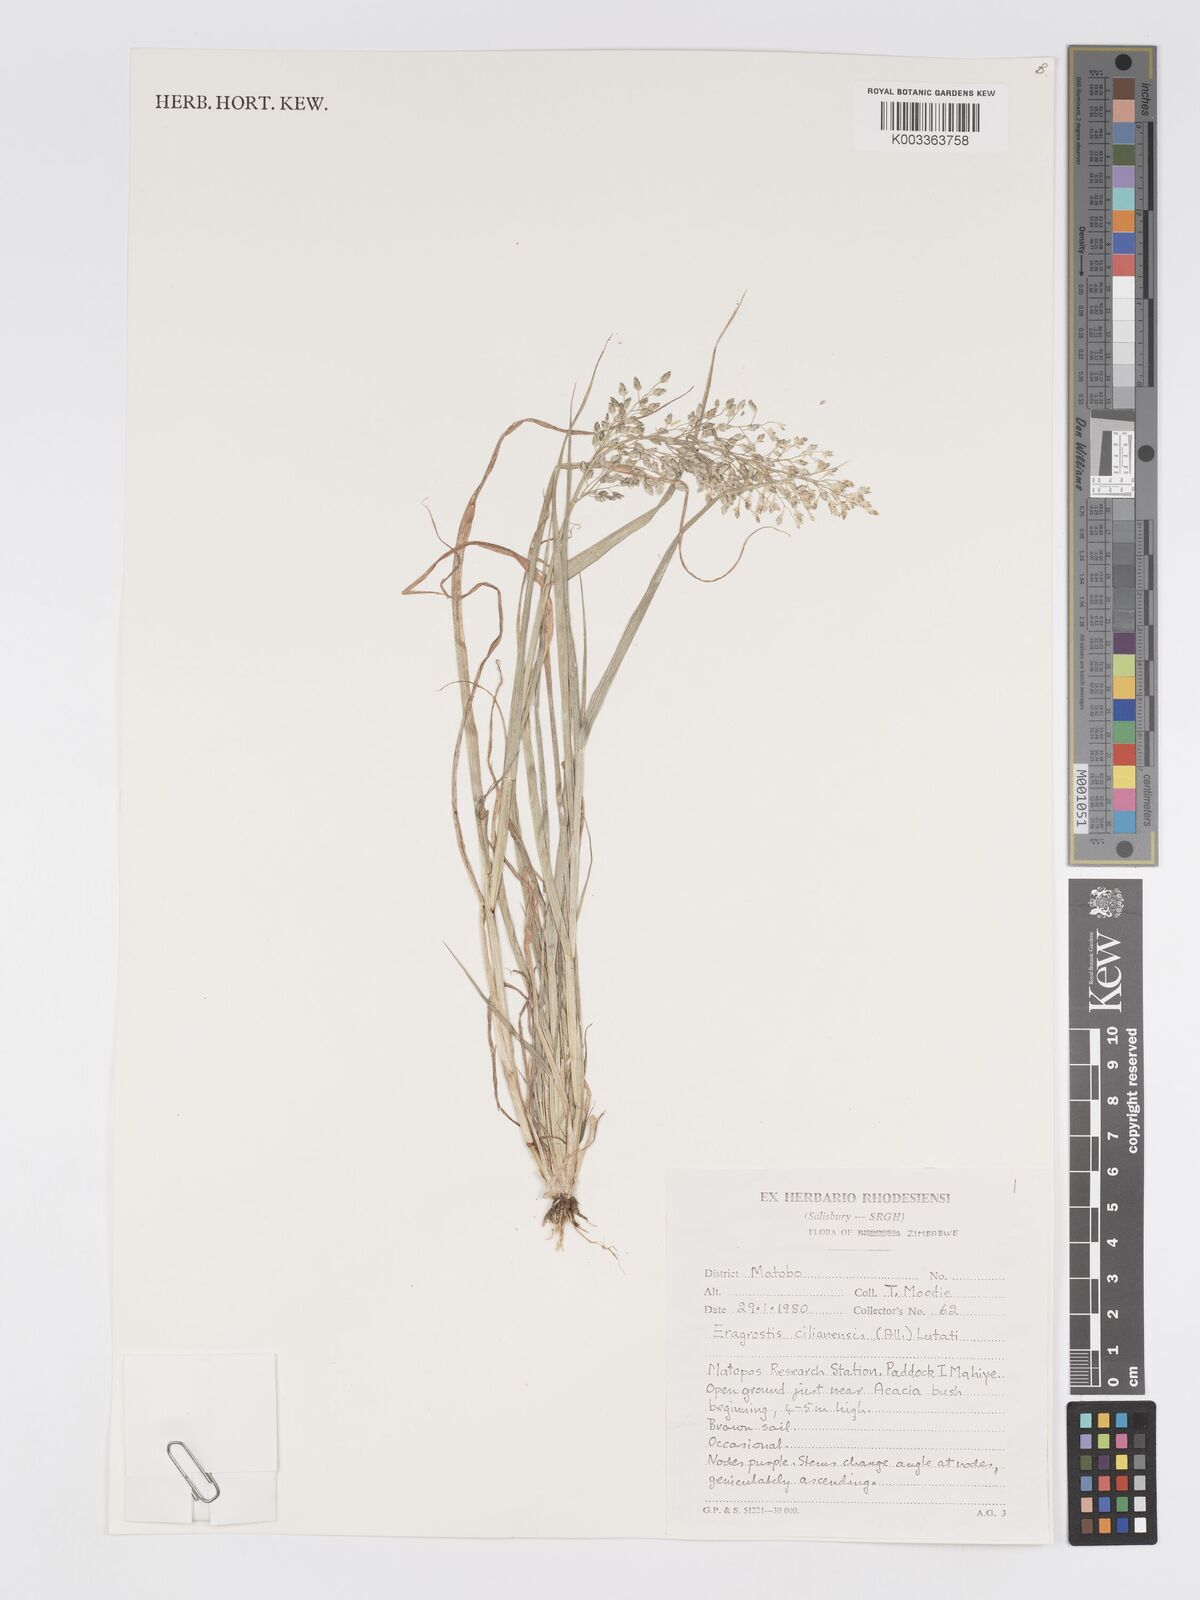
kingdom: Plantae
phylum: Tracheophyta
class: Liliopsida
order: Poales
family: Poaceae
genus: Eragrostis
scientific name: Eragrostis cilianensis
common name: Stinkgrass
